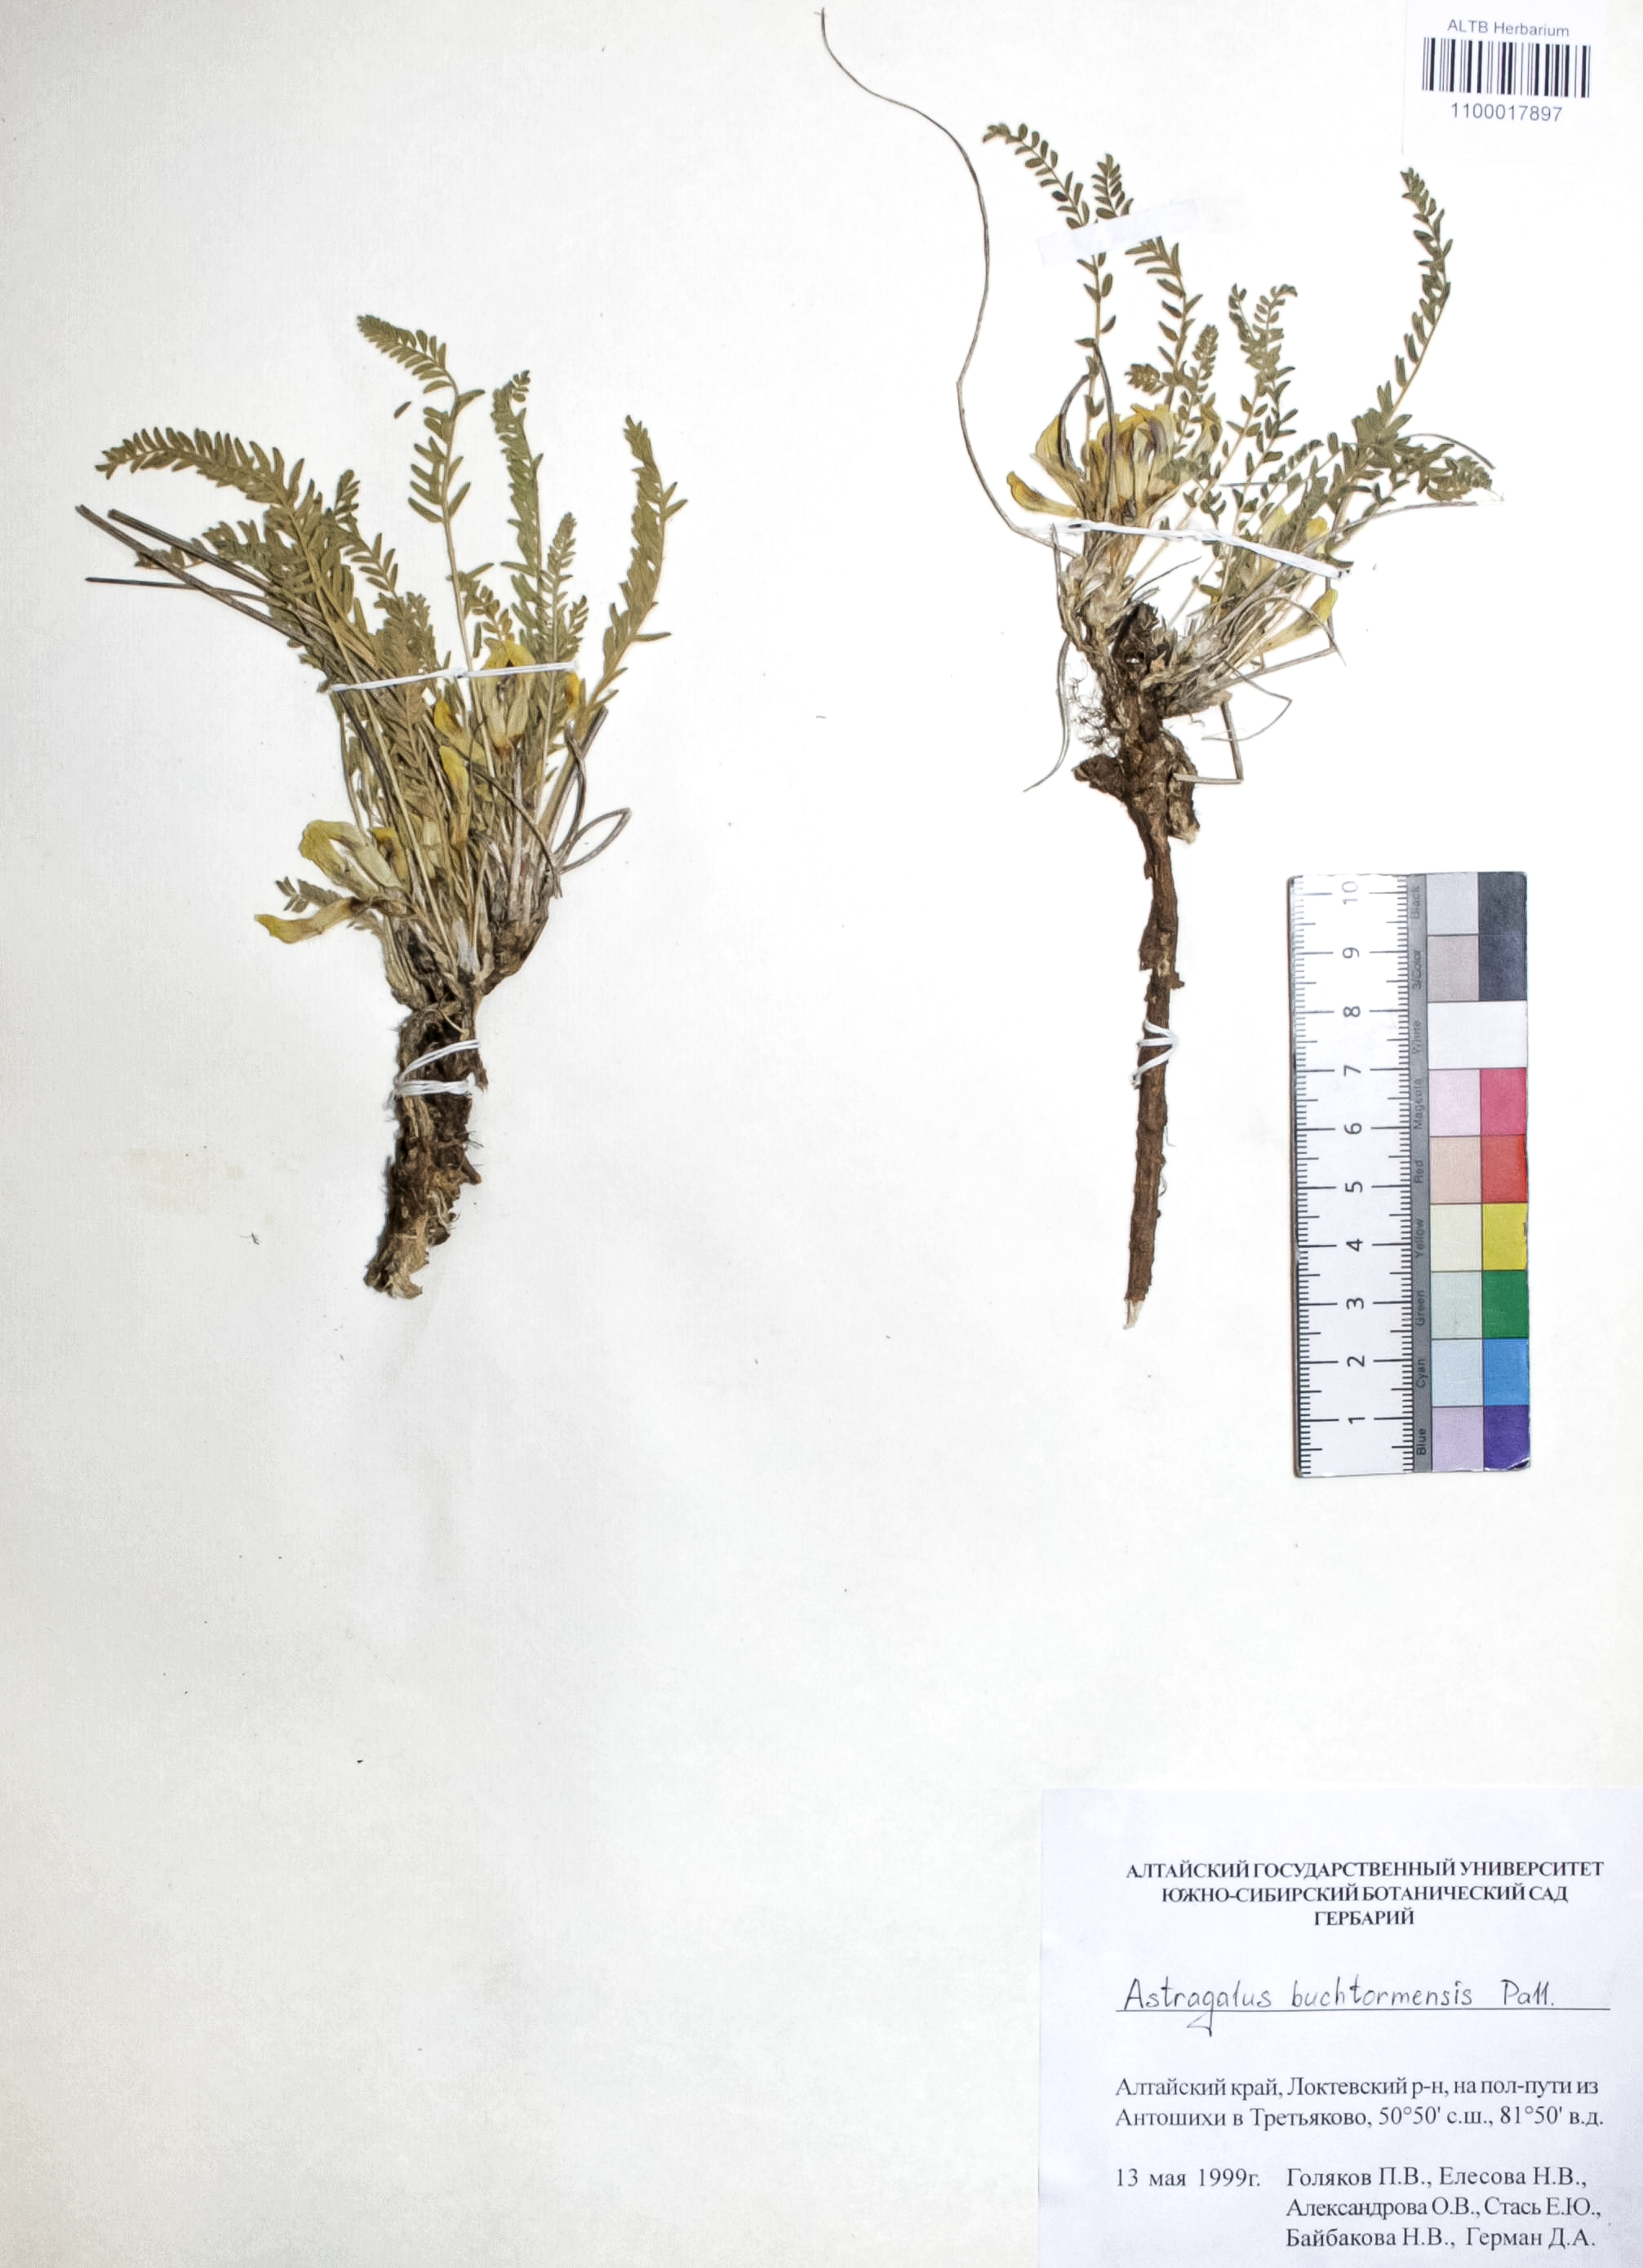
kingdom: Plantae
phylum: Tracheophyta
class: Magnoliopsida
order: Fabales
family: Fabaceae
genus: Astragalus
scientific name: Astragalus buchtormensis
